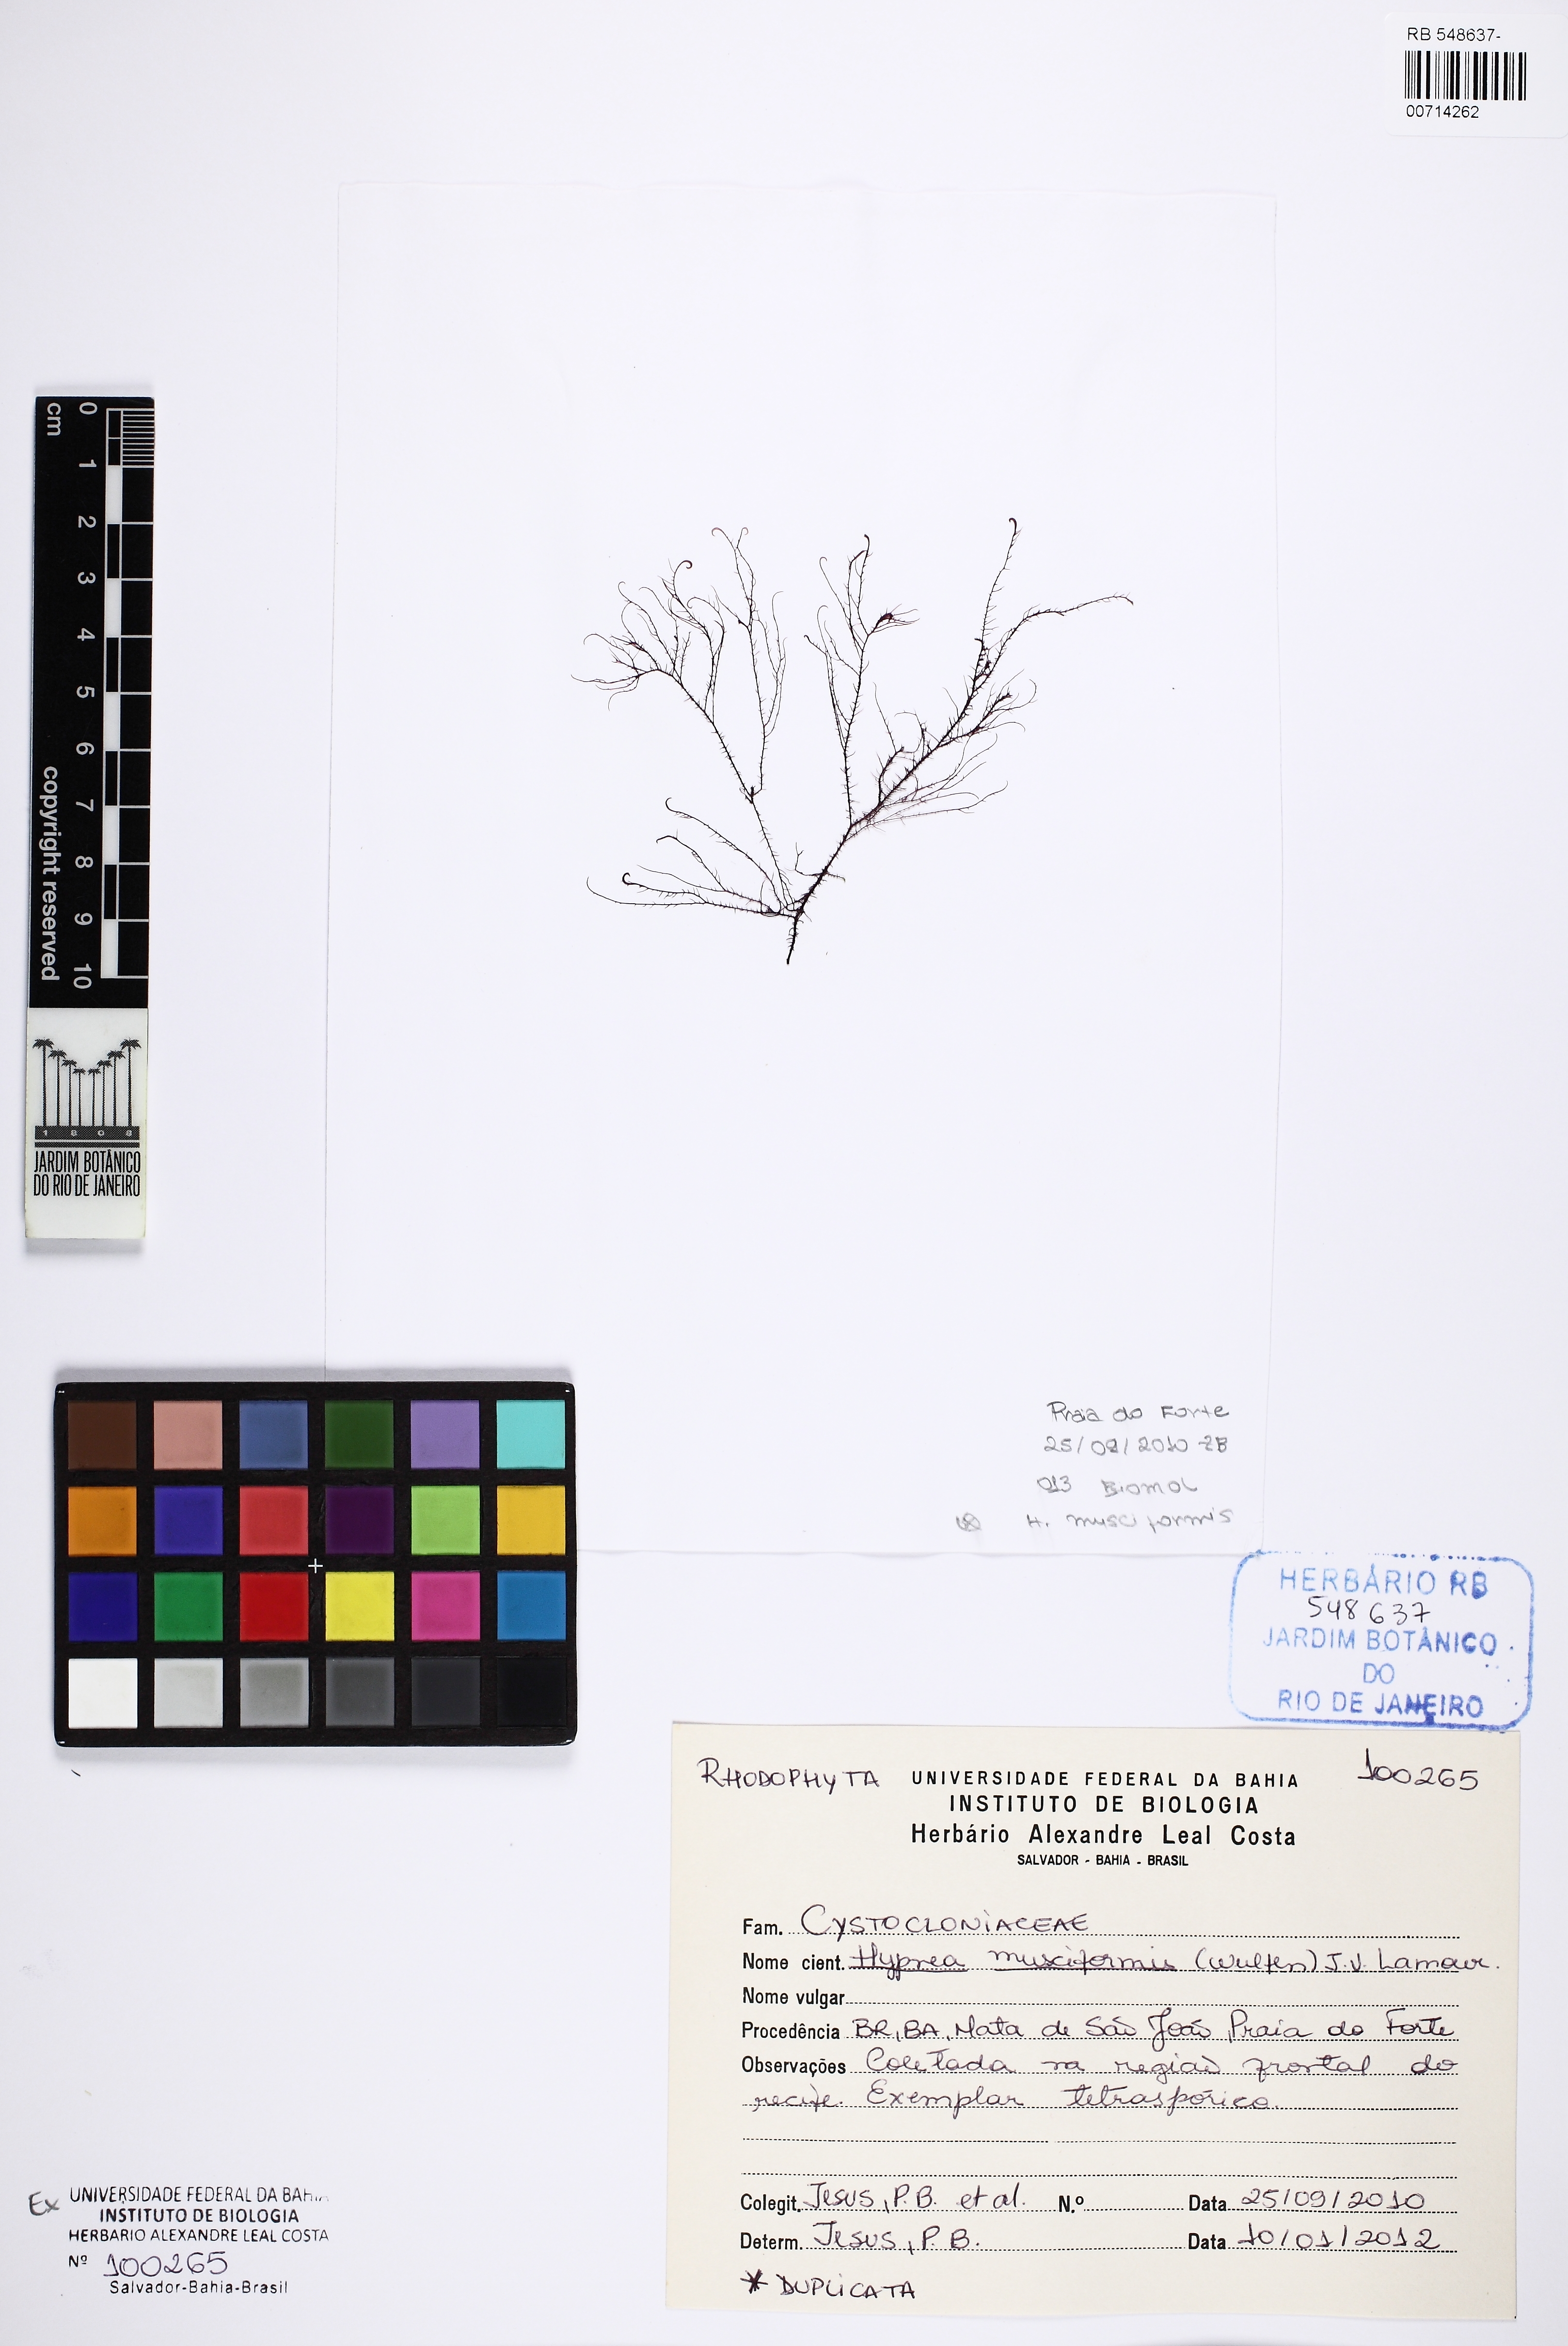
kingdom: Plantae
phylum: Rhodophyta
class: Florideophyceae
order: Gigartinales
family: Cystocloniaceae
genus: Hypnea
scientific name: Hypnea musciformis
